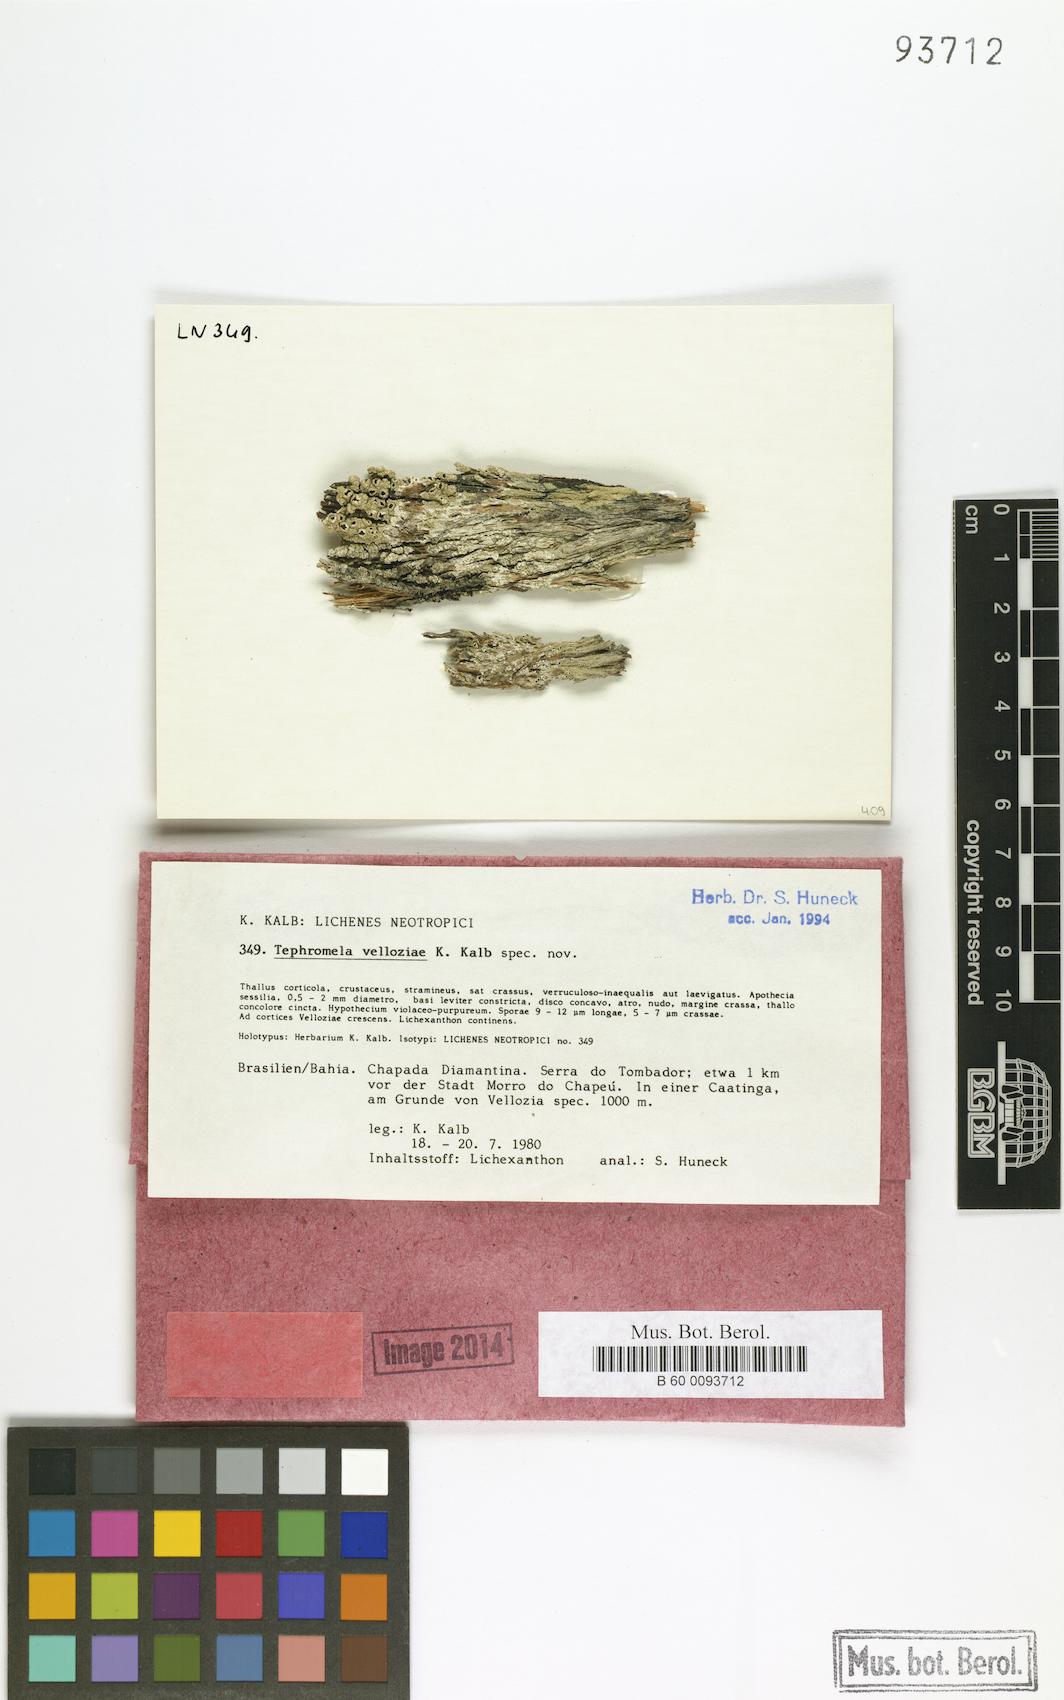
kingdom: Fungi
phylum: Ascomycota
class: Lecanoromycetes
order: Lecanorales
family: Tephromelataceae
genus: Tephromela
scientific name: Tephromela velloziae
